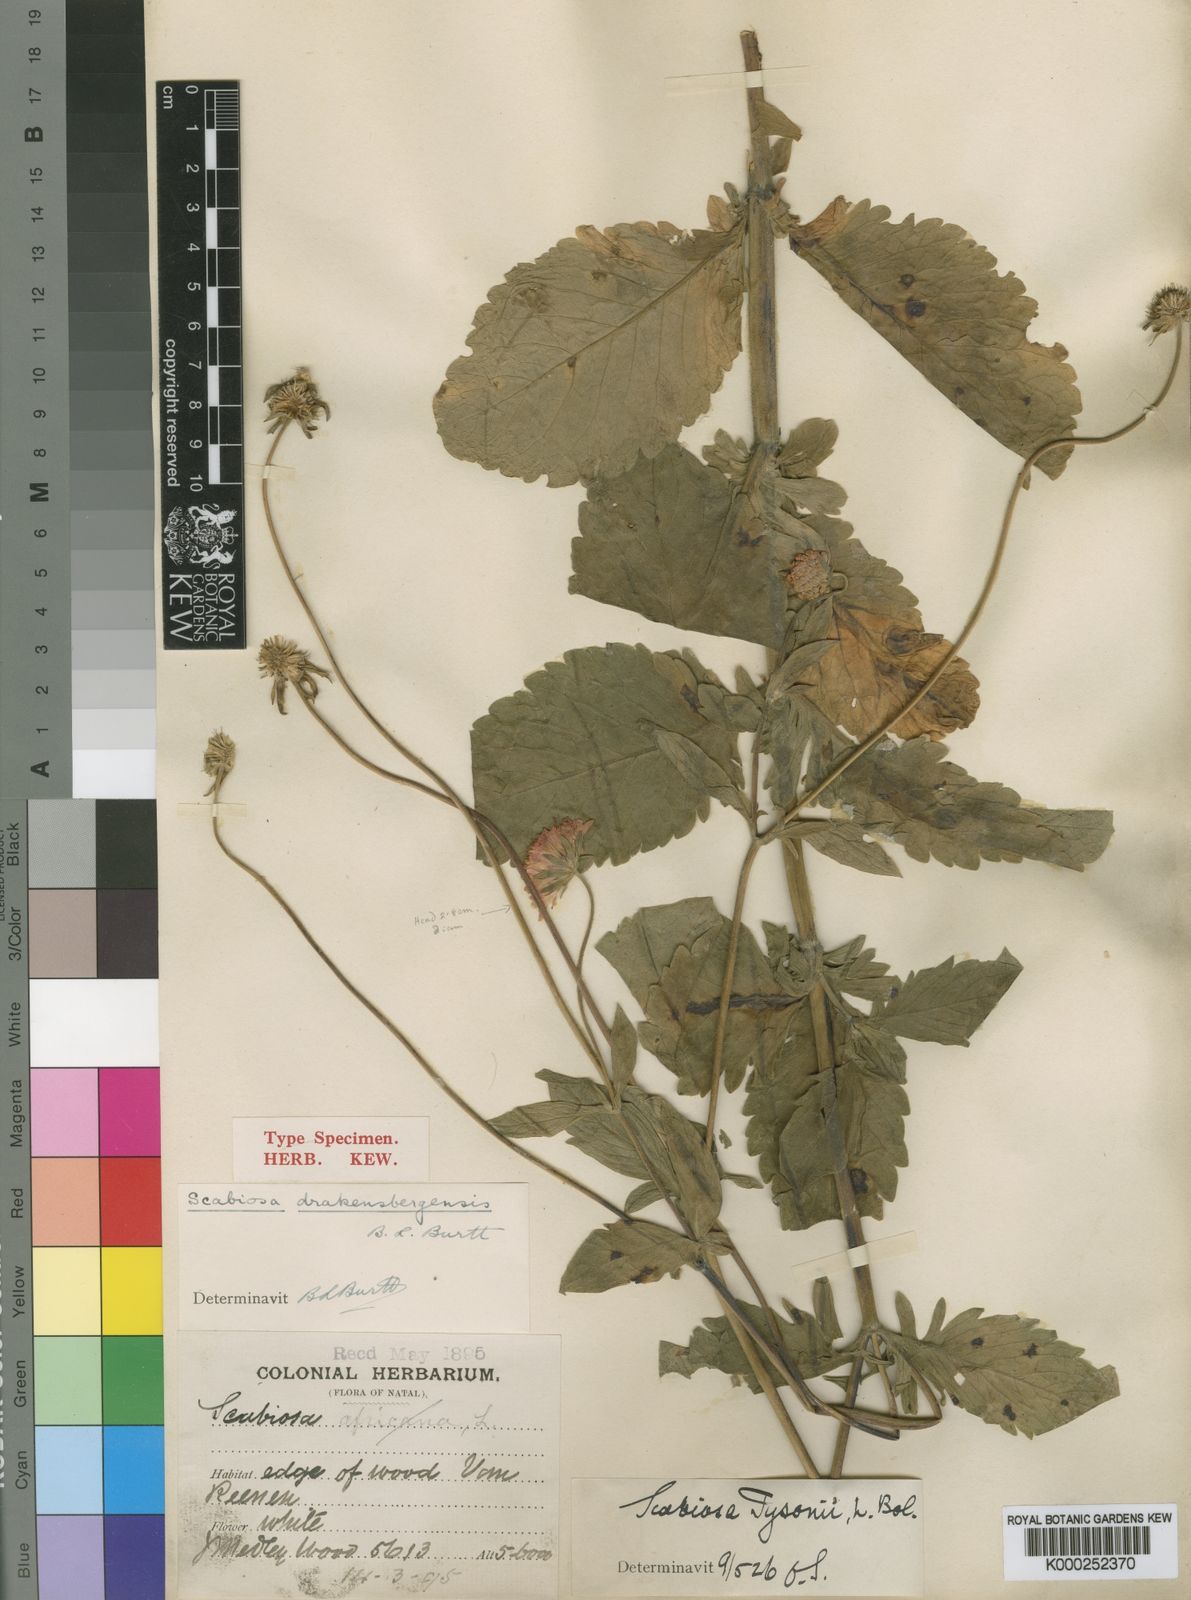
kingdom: Plantae
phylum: Tracheophyta
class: Magnoliopsida
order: Dipsacales
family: Caprifoliaceae
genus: Scabiosa
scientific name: Scabiosa drakensbergensis
